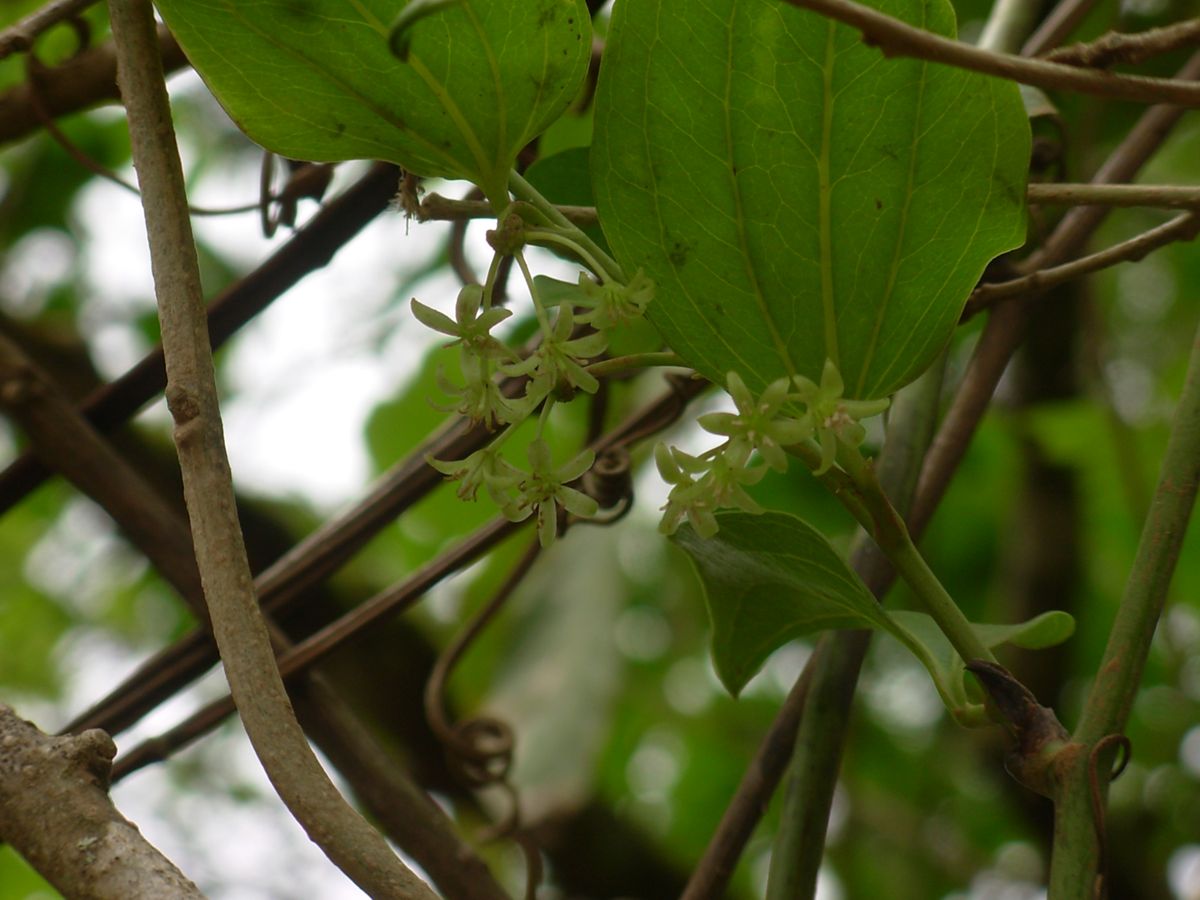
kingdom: Plantae
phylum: Tracheophyta
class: Liliopsida
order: Liliales
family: Smilacaceae
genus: Smilax
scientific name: Smilax moranensis
